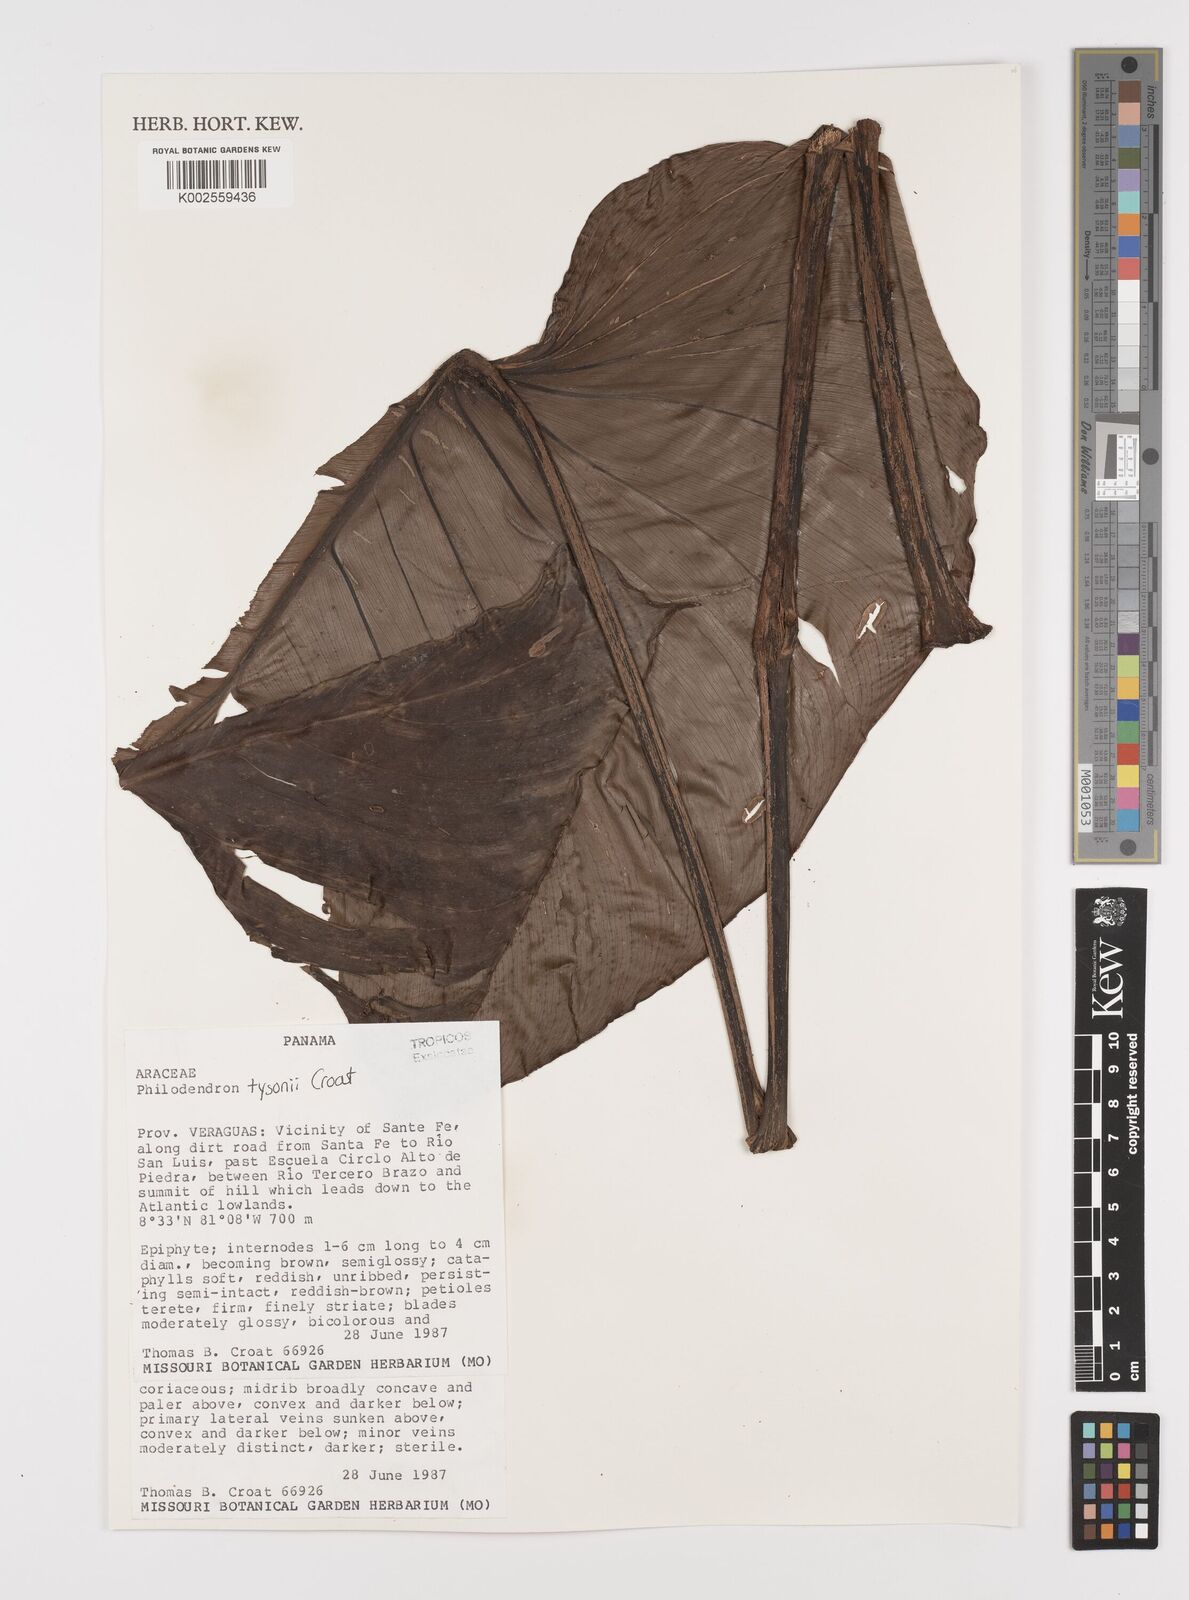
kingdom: Plantae
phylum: Tracheophyta
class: Liliopsida
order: Alismatales
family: Araceae
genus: Philodendron
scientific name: Philodendron tysonii
